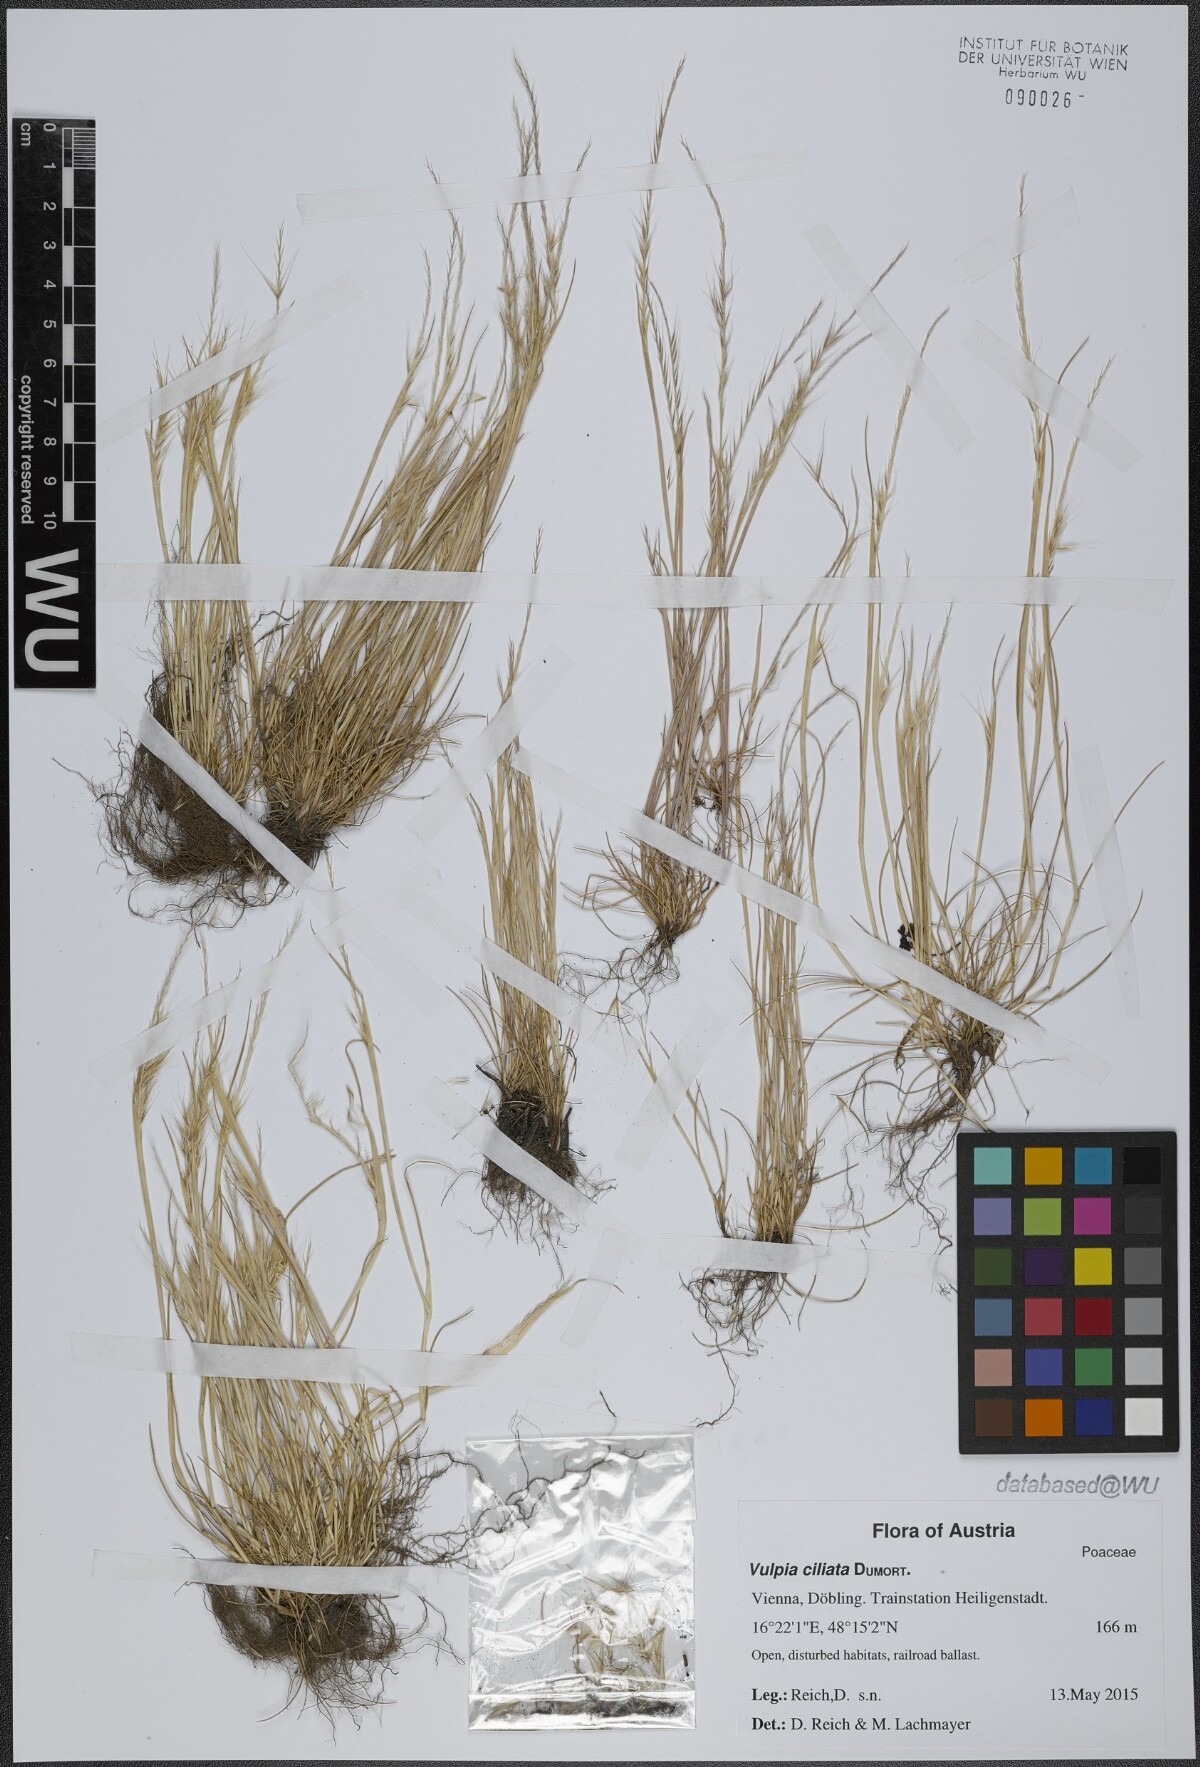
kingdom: Plantae
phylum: Tracheophyta
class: Liliopsida
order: Poales
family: Poaceae
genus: Festuca
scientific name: Festuca ambigua
